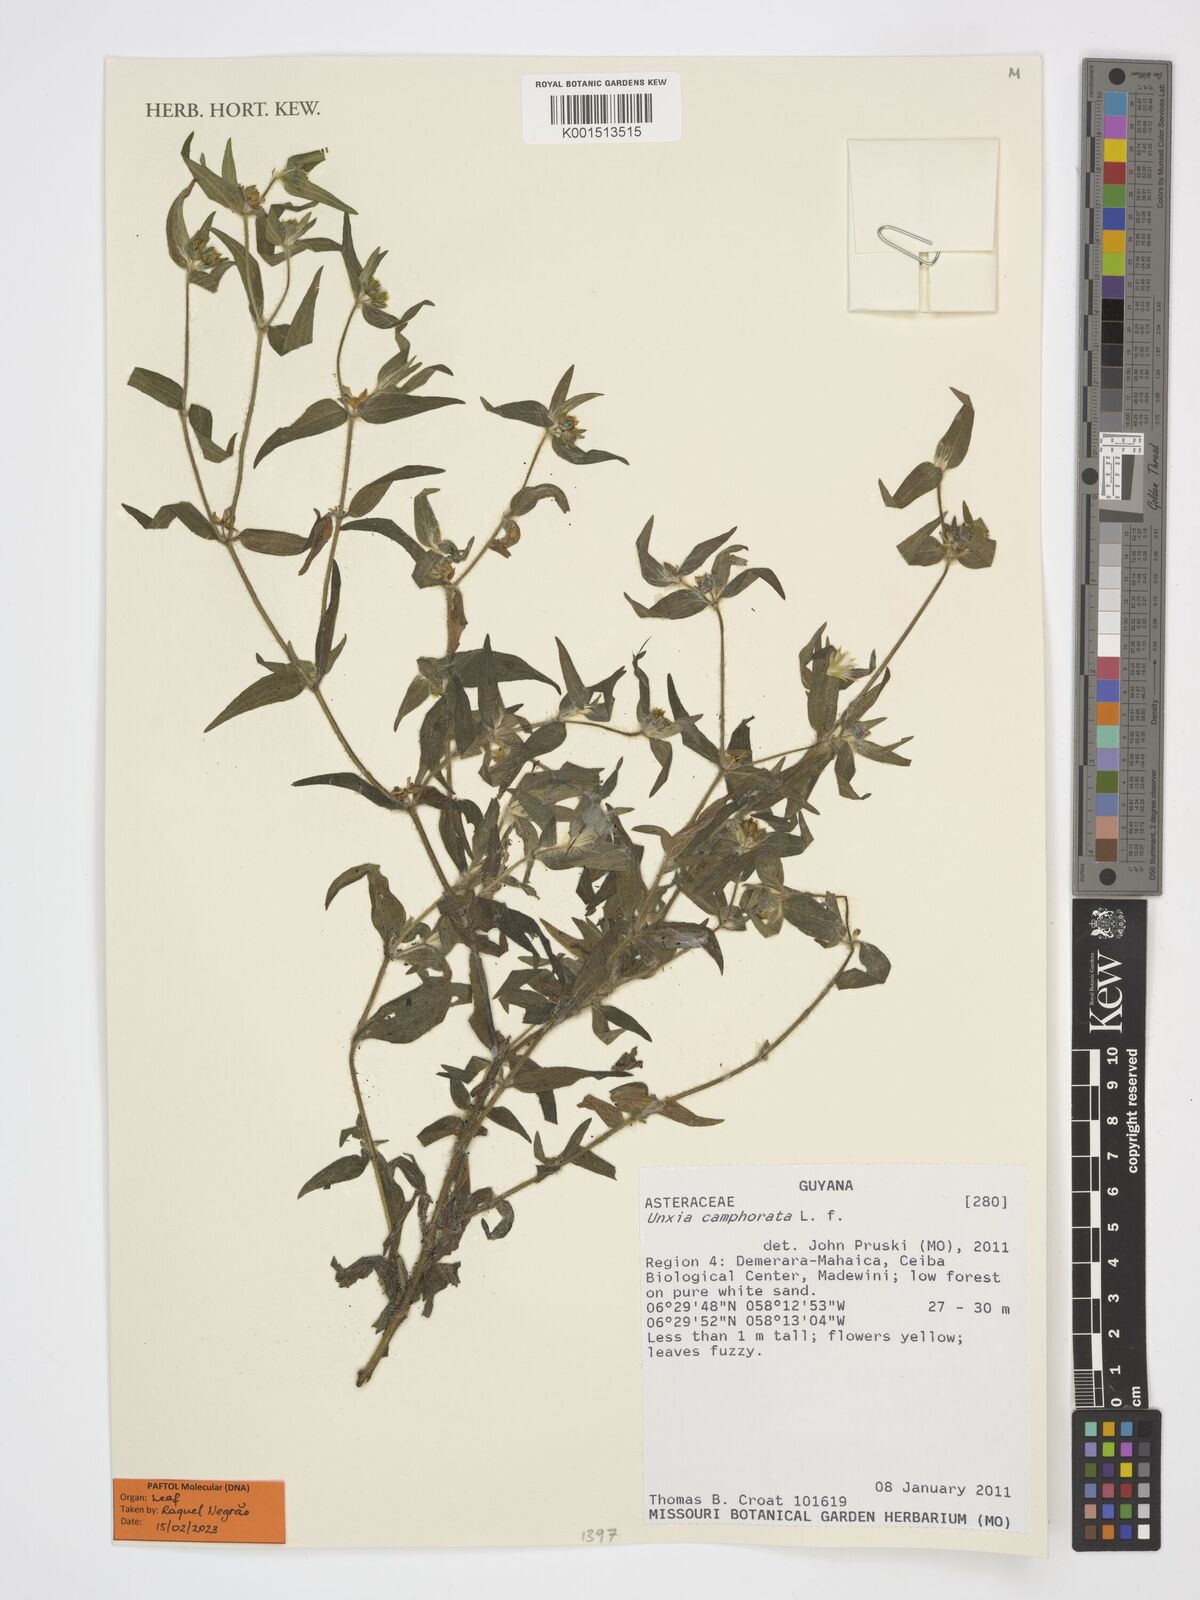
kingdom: Plantae
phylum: Tracheophyta
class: Magnoliopsida
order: Asterales
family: Asteraceae
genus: Unxia
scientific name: Unxia camphorata
